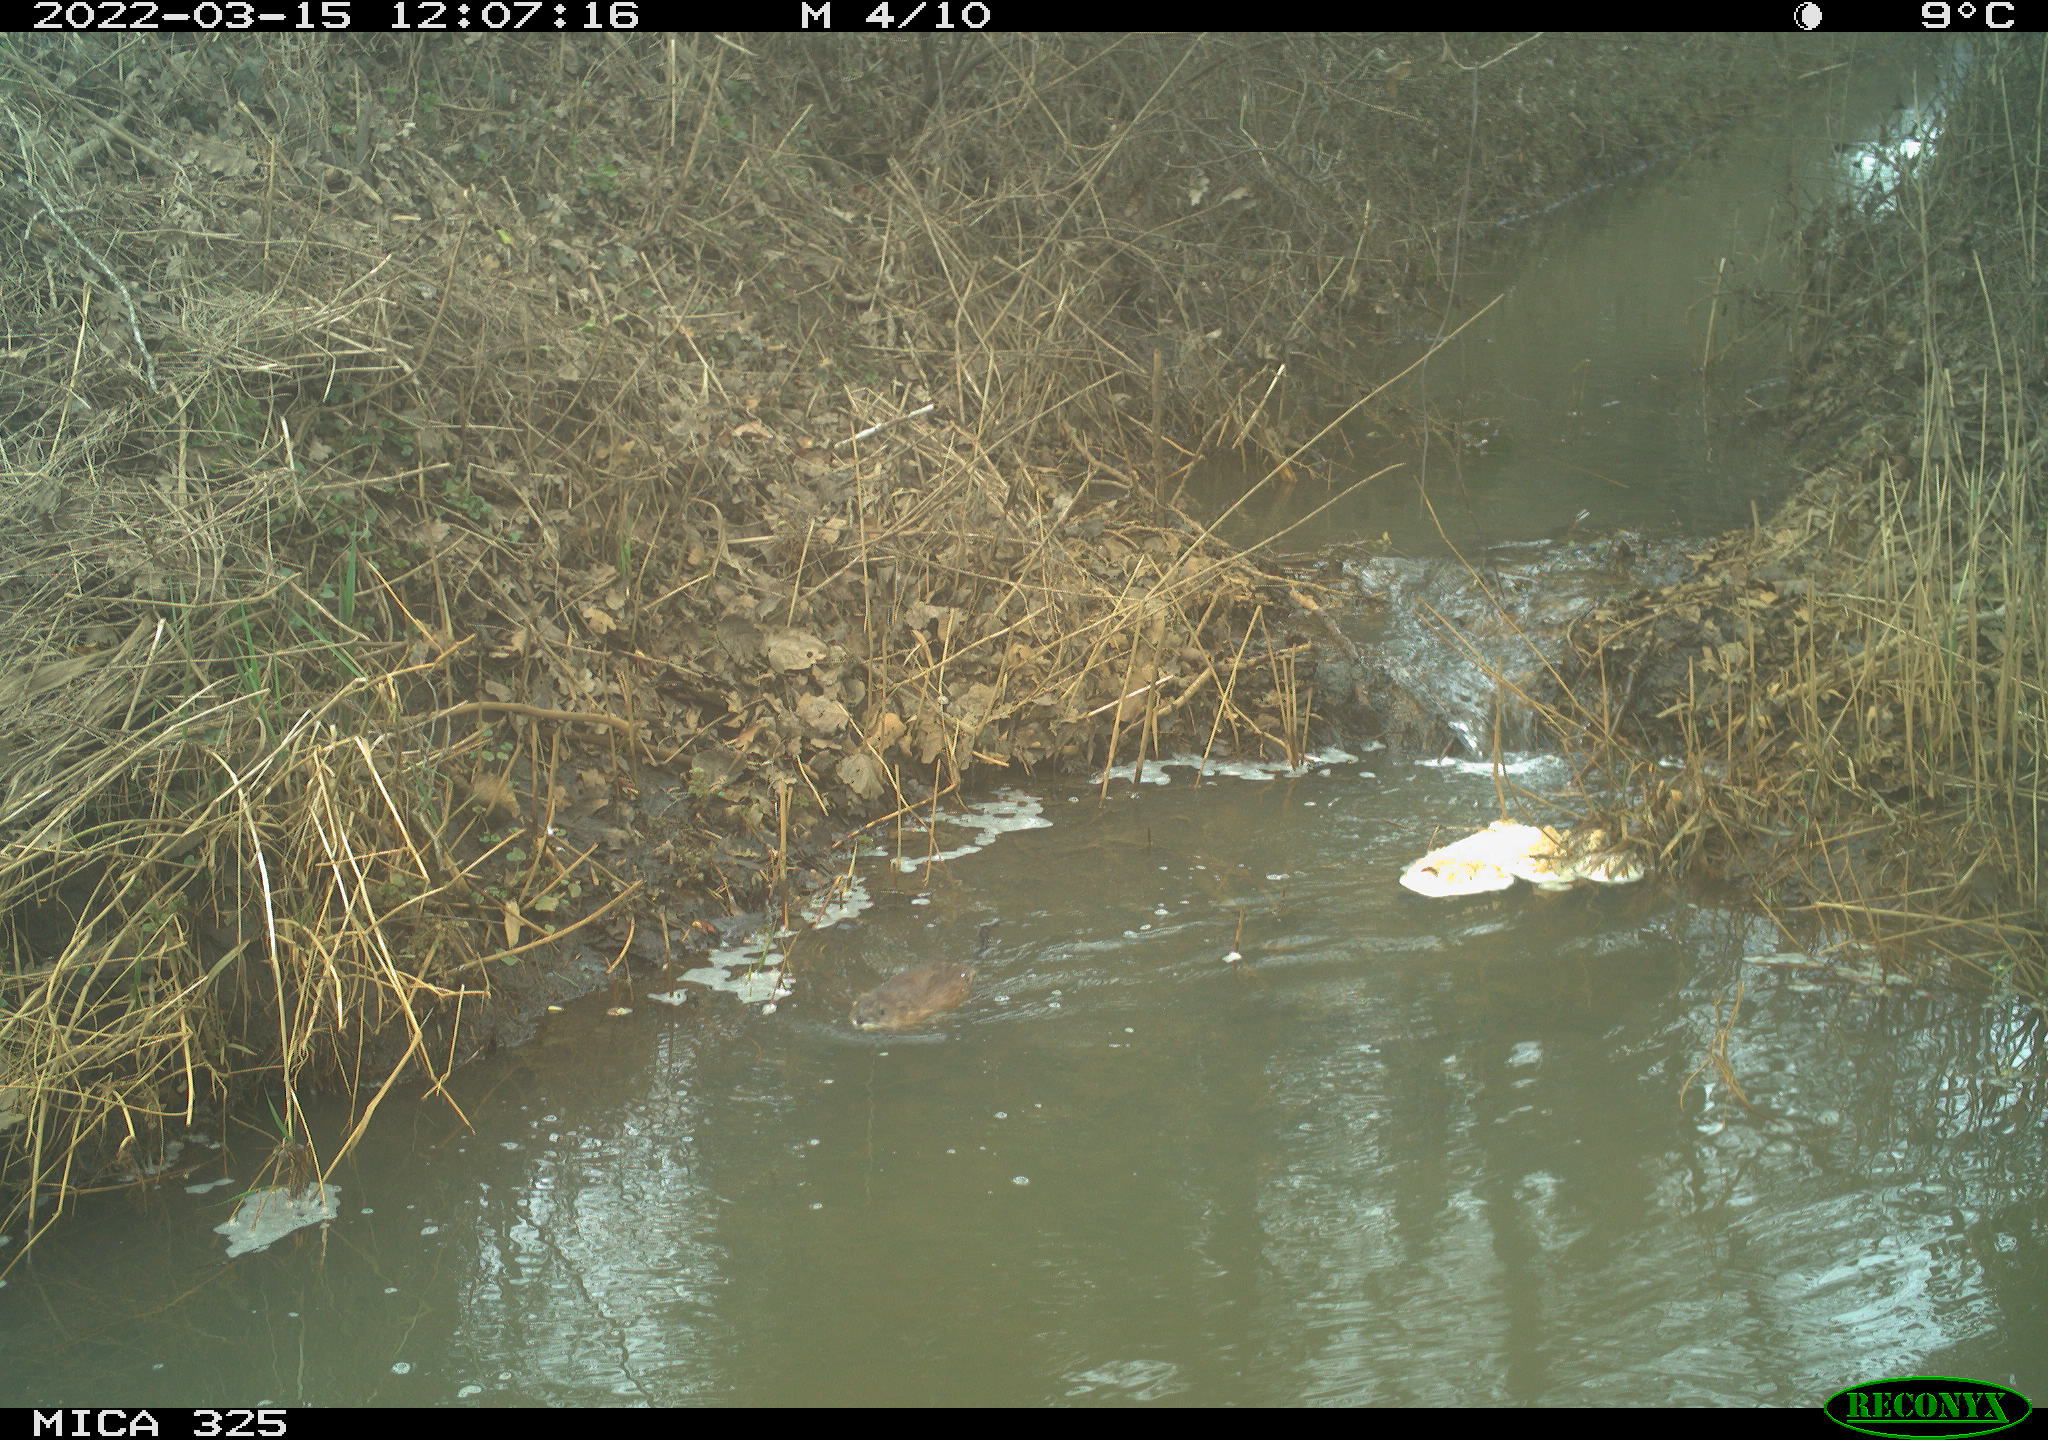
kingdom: Animalia
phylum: Chordata
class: Mammalia
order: Rodentia
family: Cricetidae
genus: Ondatra
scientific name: Ondatra zibethicus
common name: Muskrat
